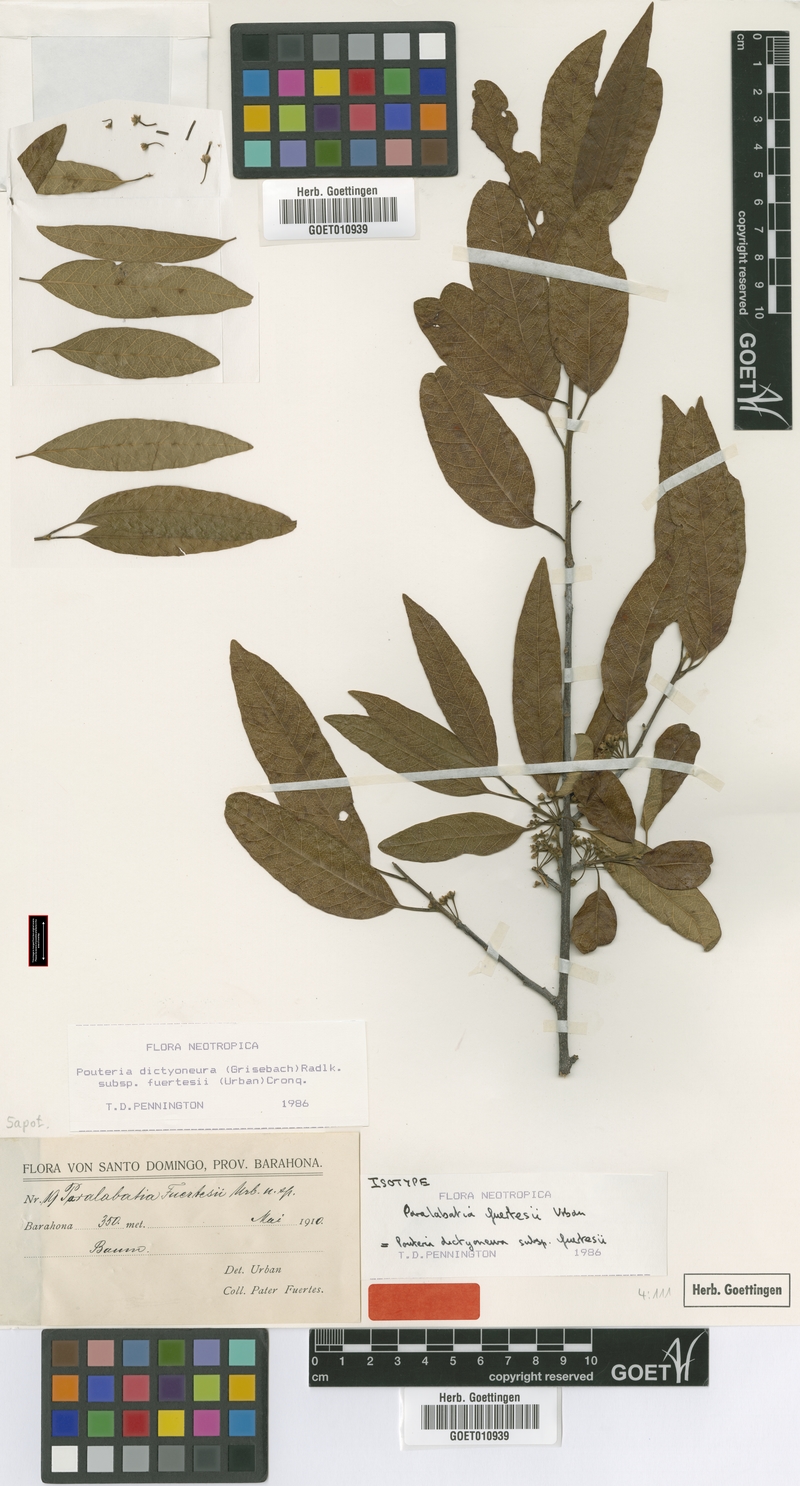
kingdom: Plantae
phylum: Tracheophyta
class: Magnoliopsida
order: Ericales
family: Sapotaceae
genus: Pouteria
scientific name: Pouteria dictyoneura
